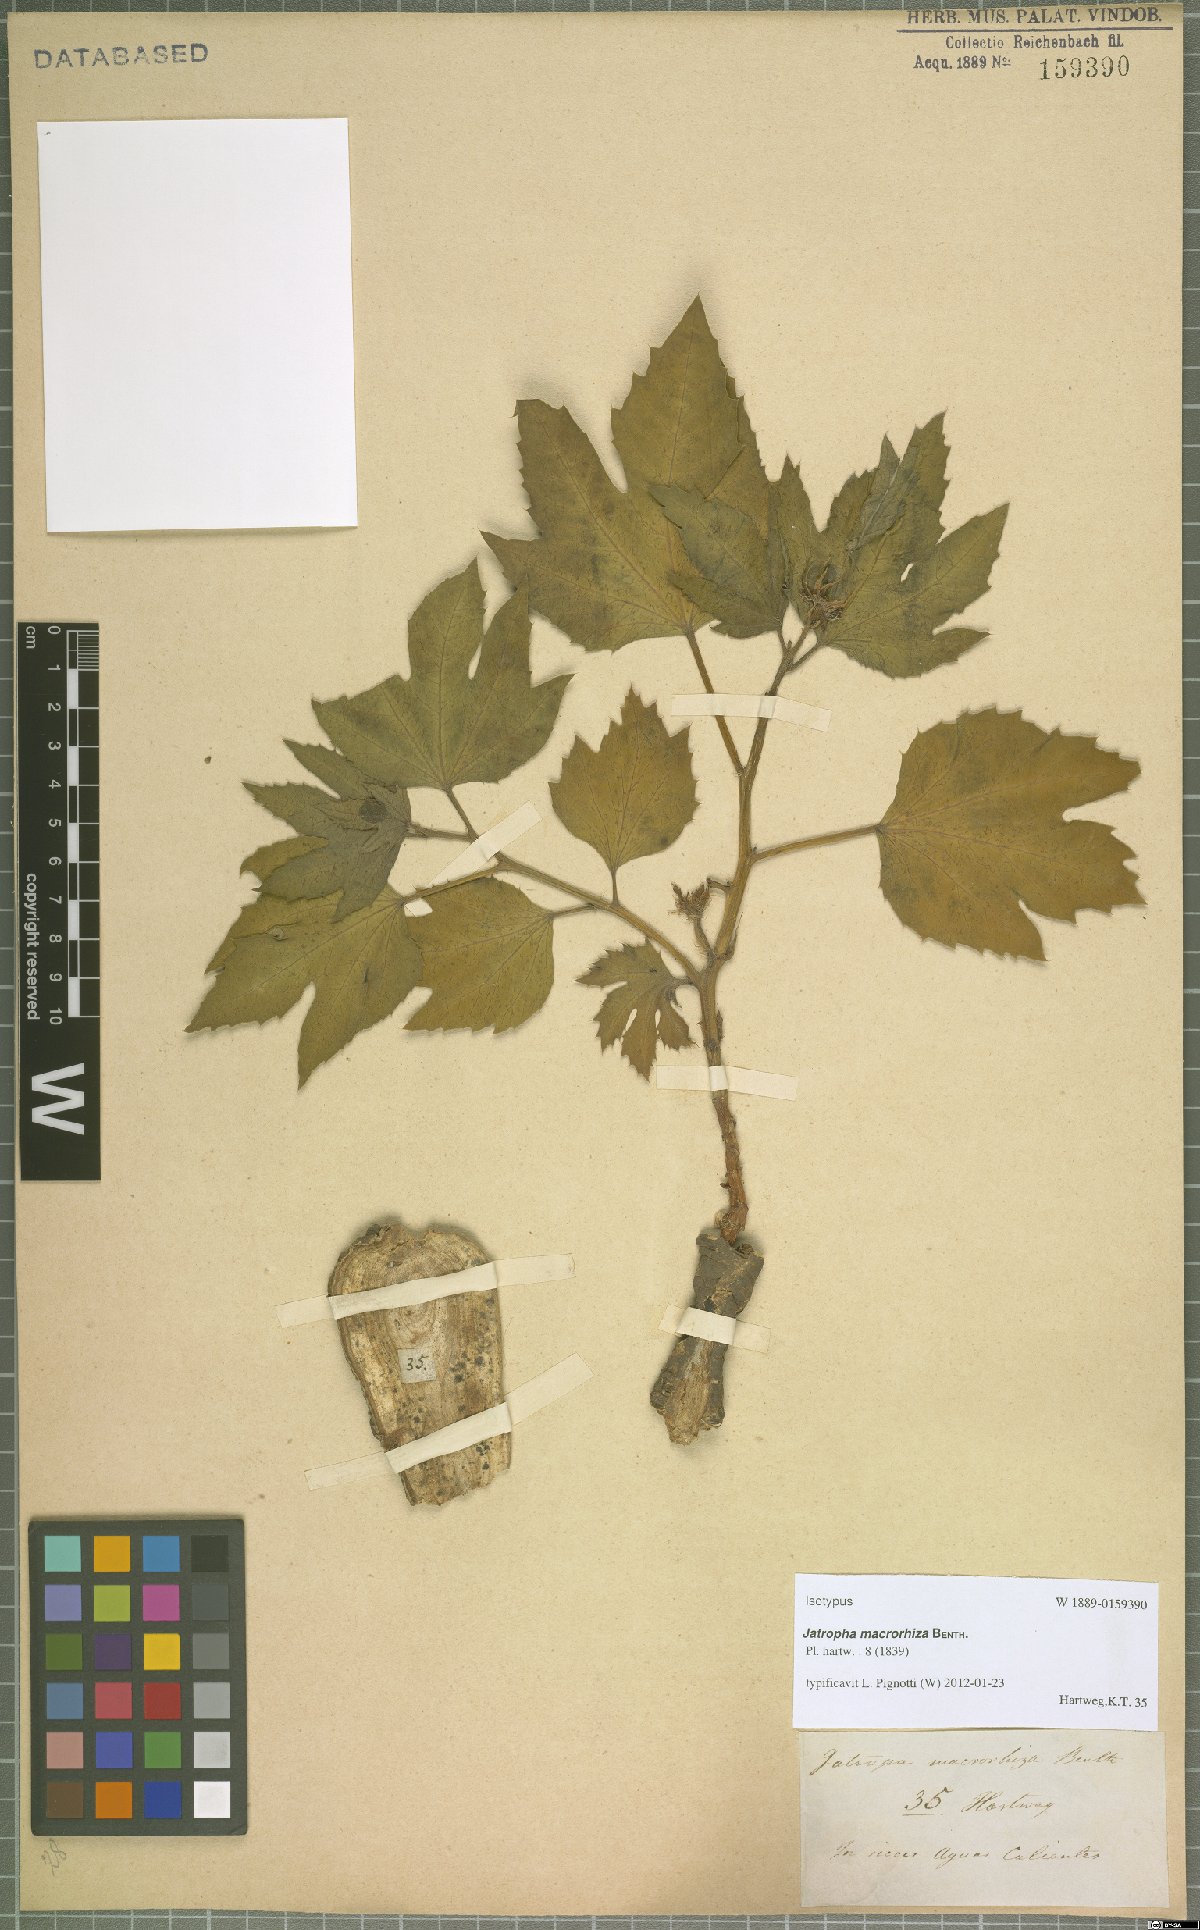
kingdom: Plantae
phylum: Tracheophyta
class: Magnoliopsida
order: Malpighiales
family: Euphorbiaceae
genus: Jatropha
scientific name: Jatropha macrorhiza
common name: Ragged nettlespurge
